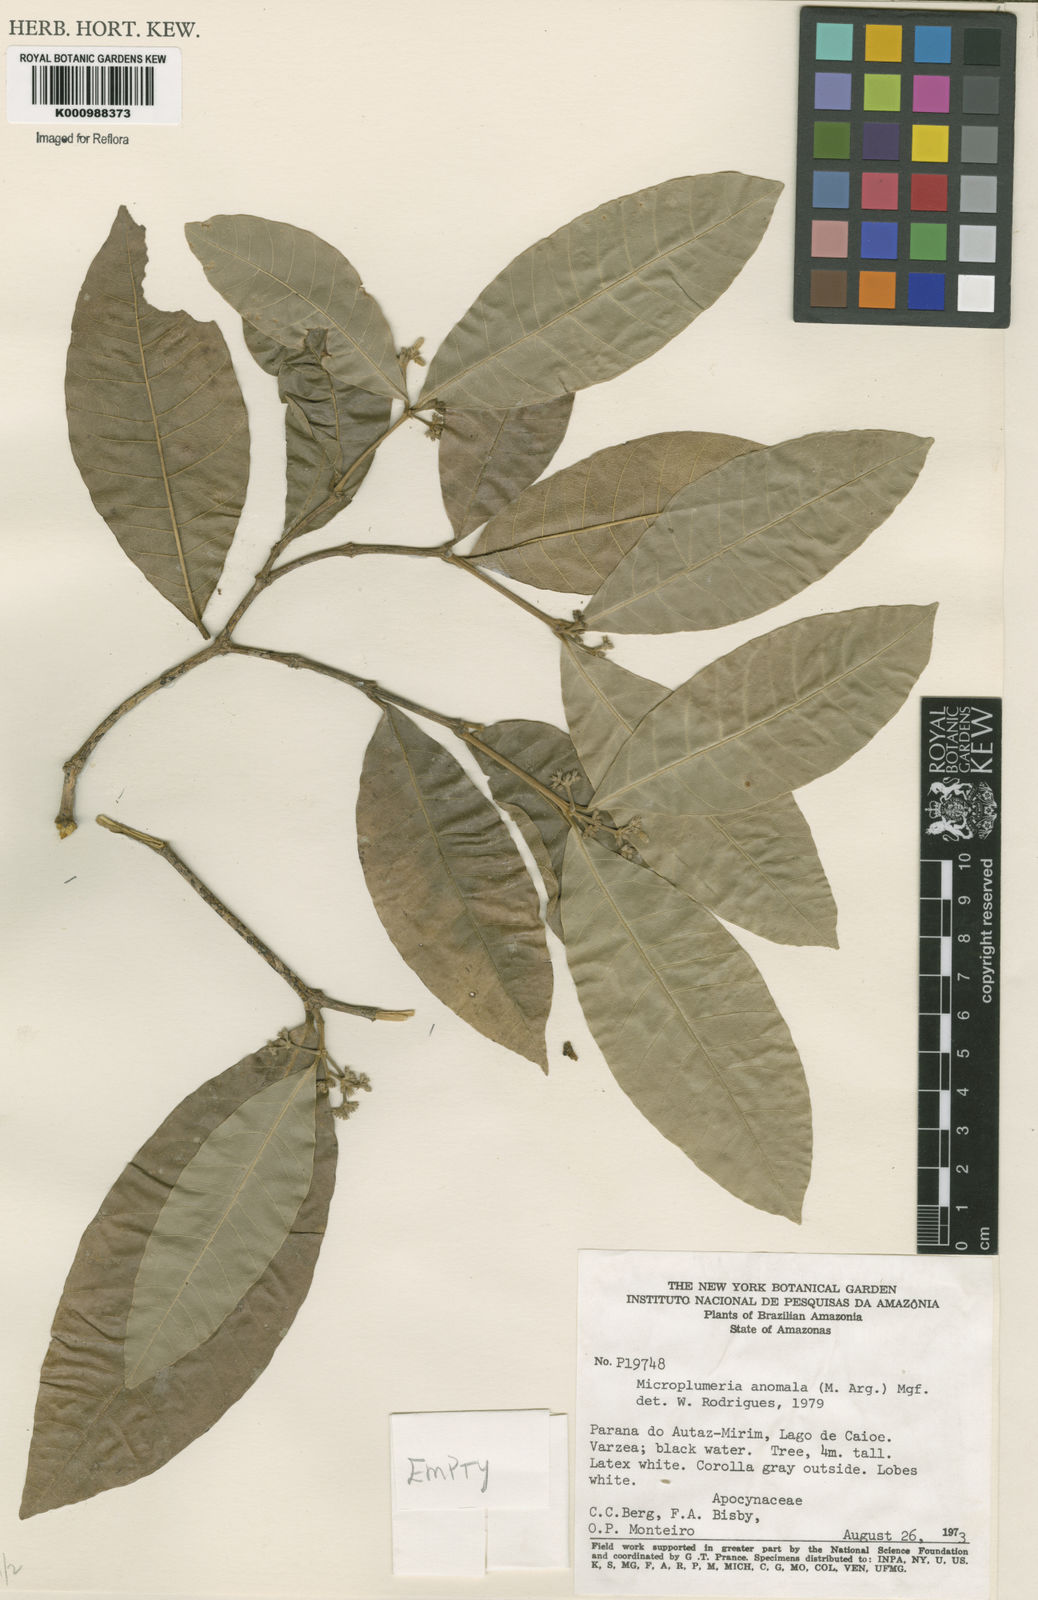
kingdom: Plantae
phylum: Tracheophyta
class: Magnoliopsida
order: Gentianales
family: Apocynaceae
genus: Microplumeria
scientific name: Microplumeria
